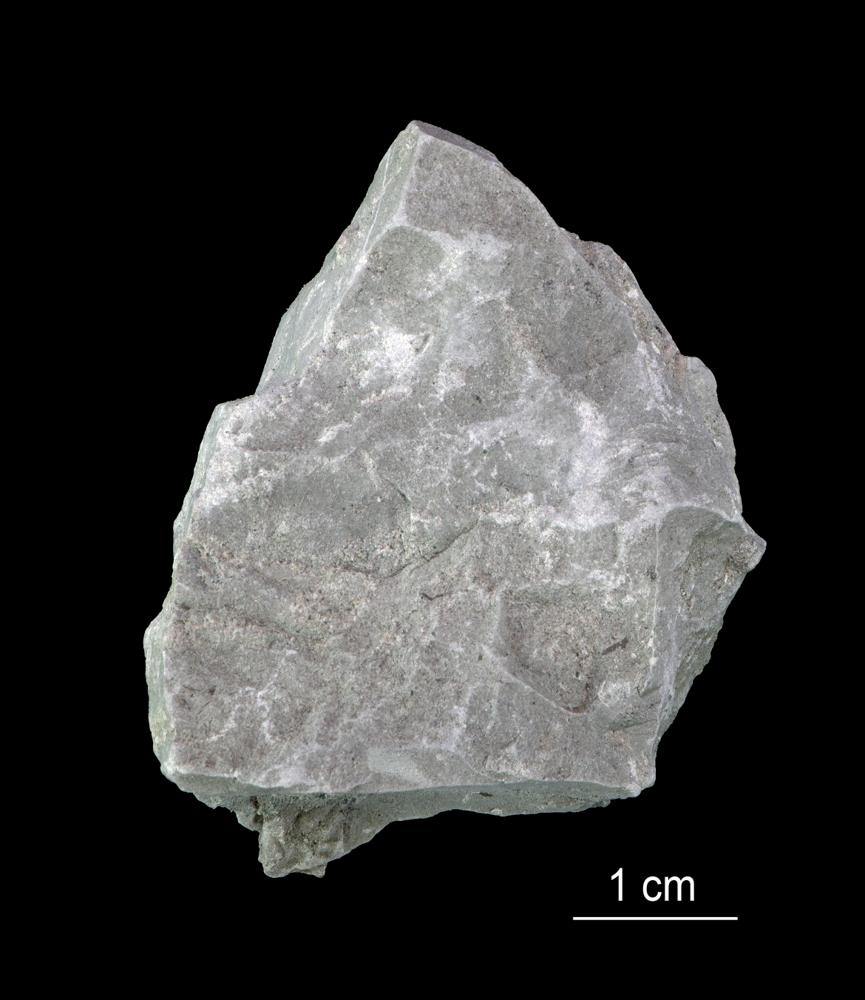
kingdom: Animalia
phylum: Annelida
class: Polychaeta
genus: Volborthella
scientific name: Volborthella tenuis
